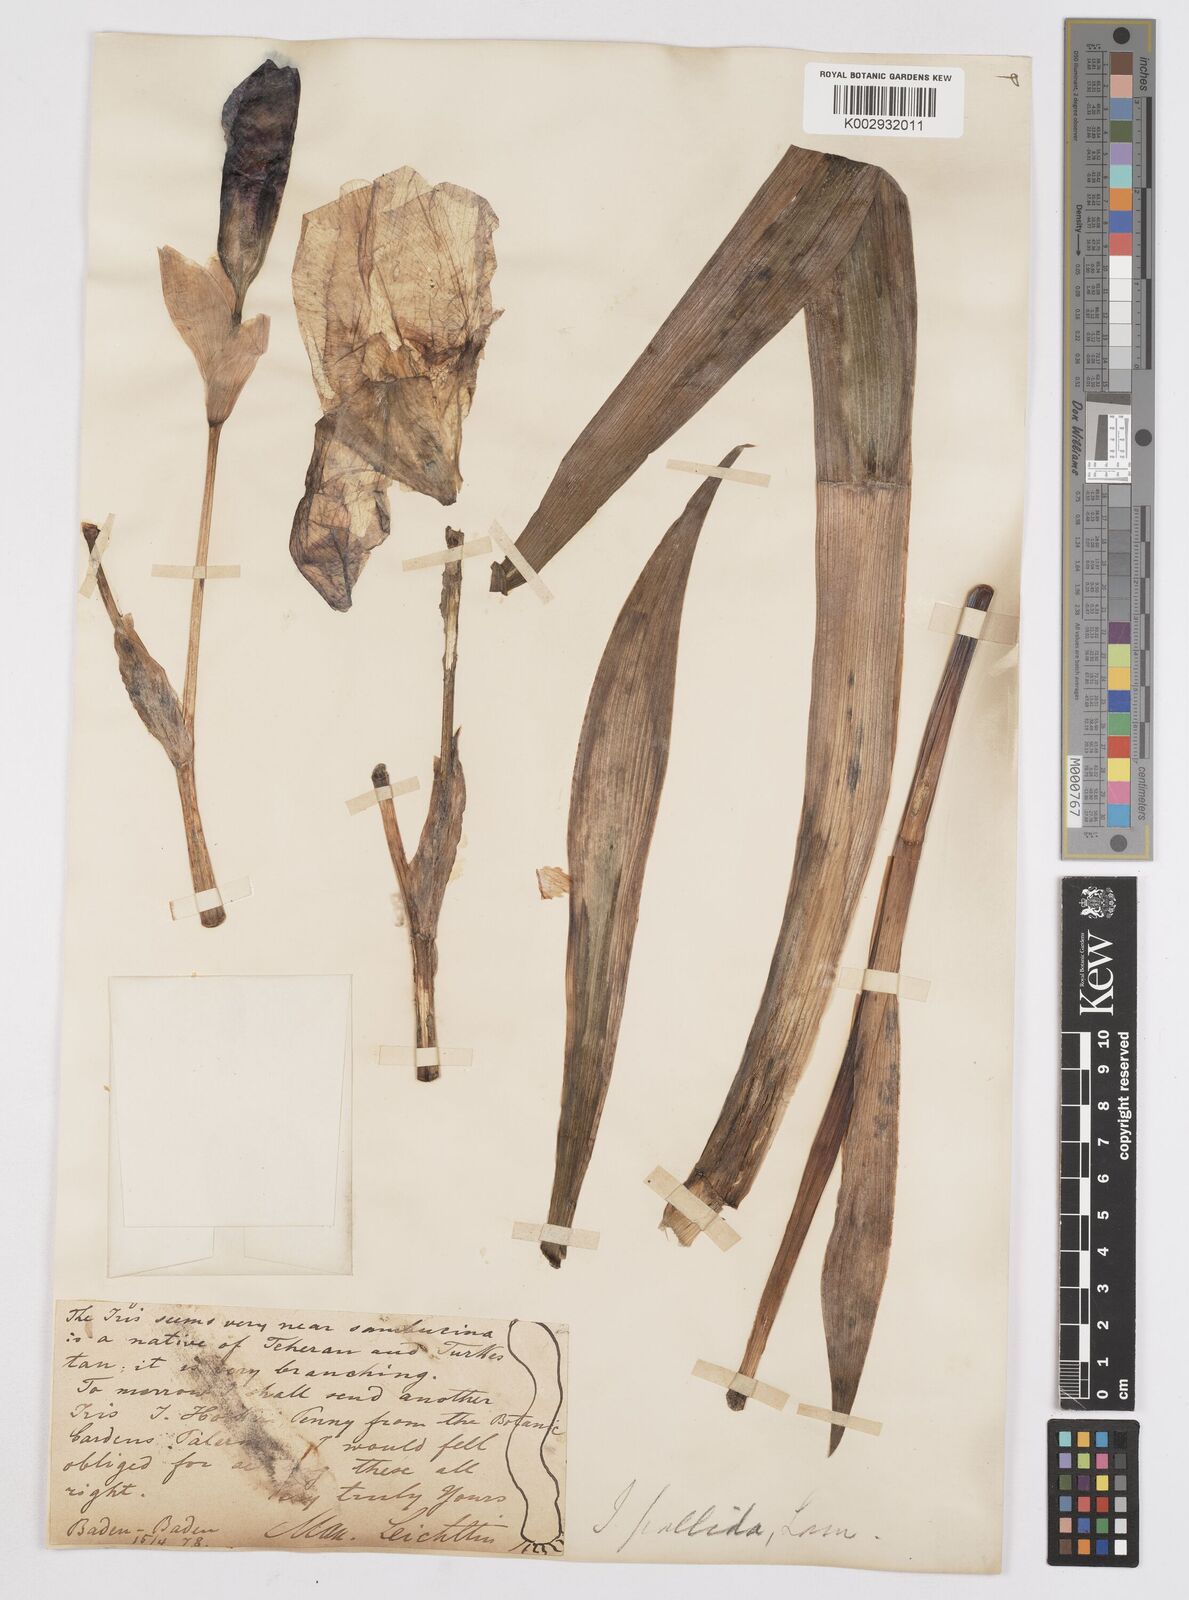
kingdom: Plantae
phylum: Tracheophyta
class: Liliopsida
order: Asparagales
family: Iridaceae
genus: Iris
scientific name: Iris germanica
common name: German iris
